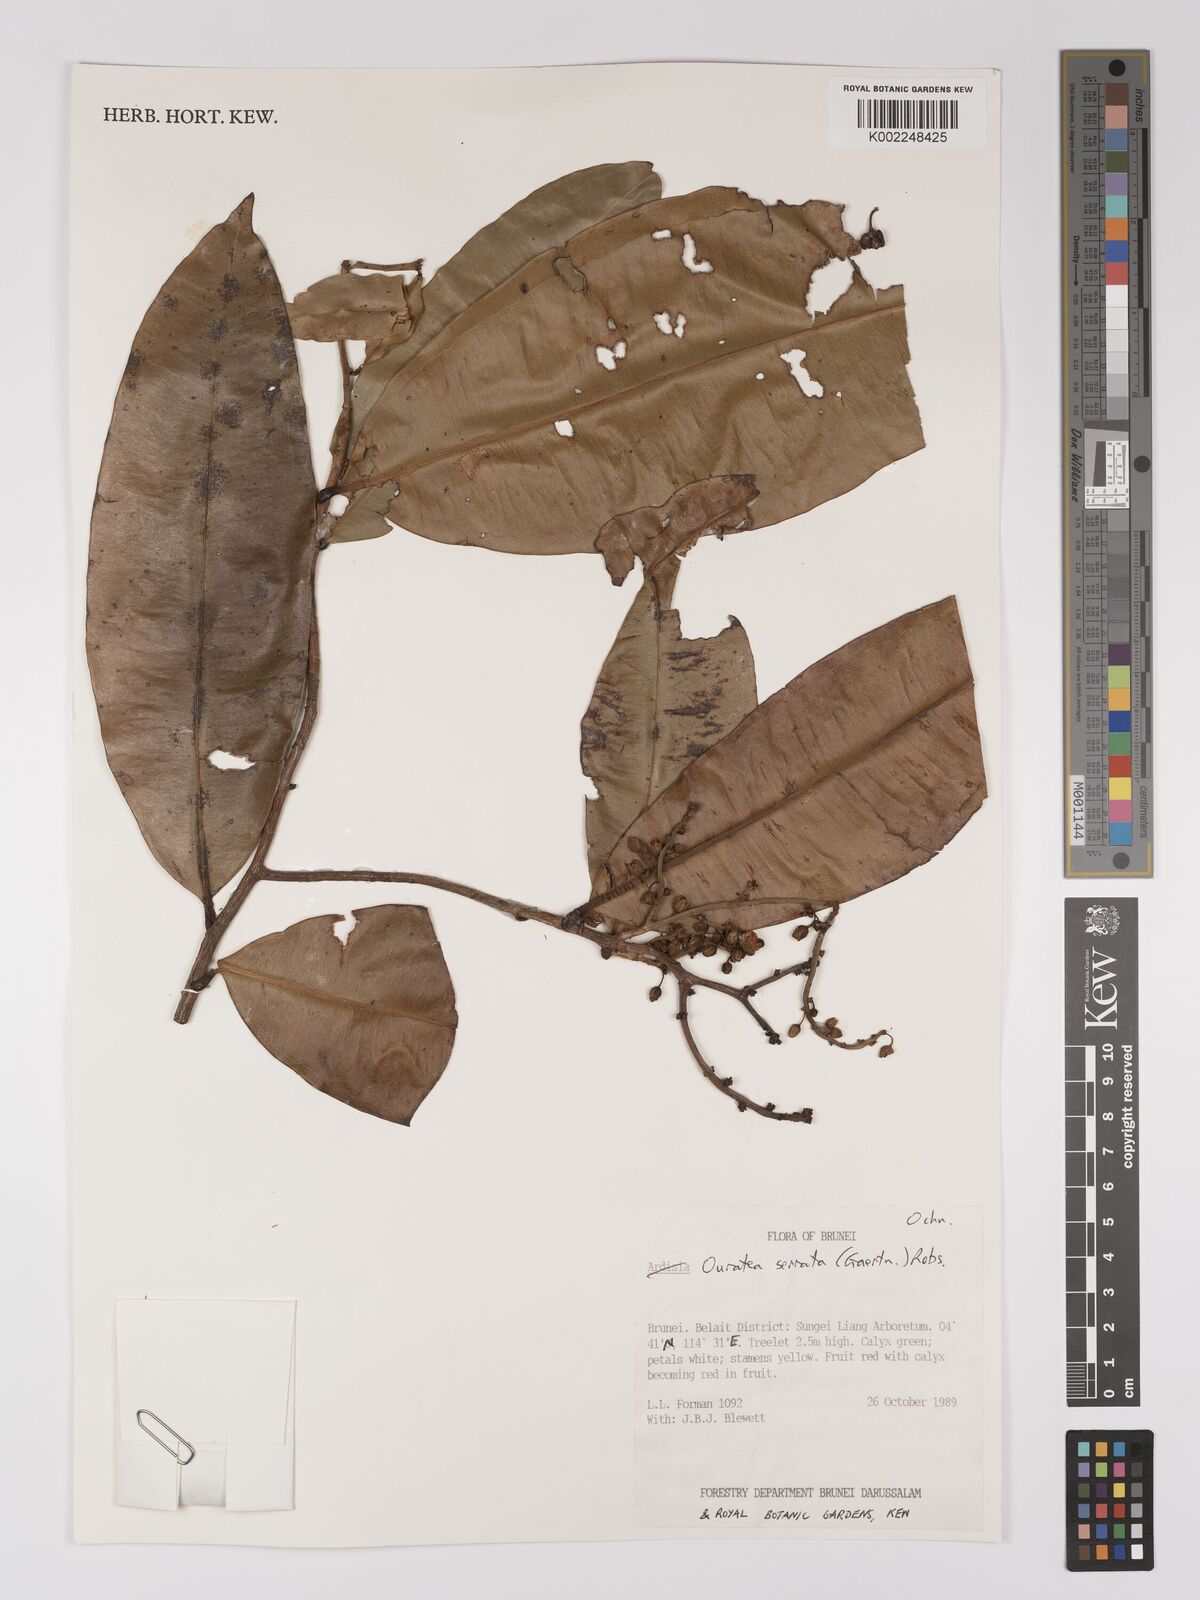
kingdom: Plantae
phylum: Tracheophyta
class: Magnoliopsida
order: Malpighiales
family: Ochnaceae
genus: Gomphia
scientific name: Gomphia serrata
